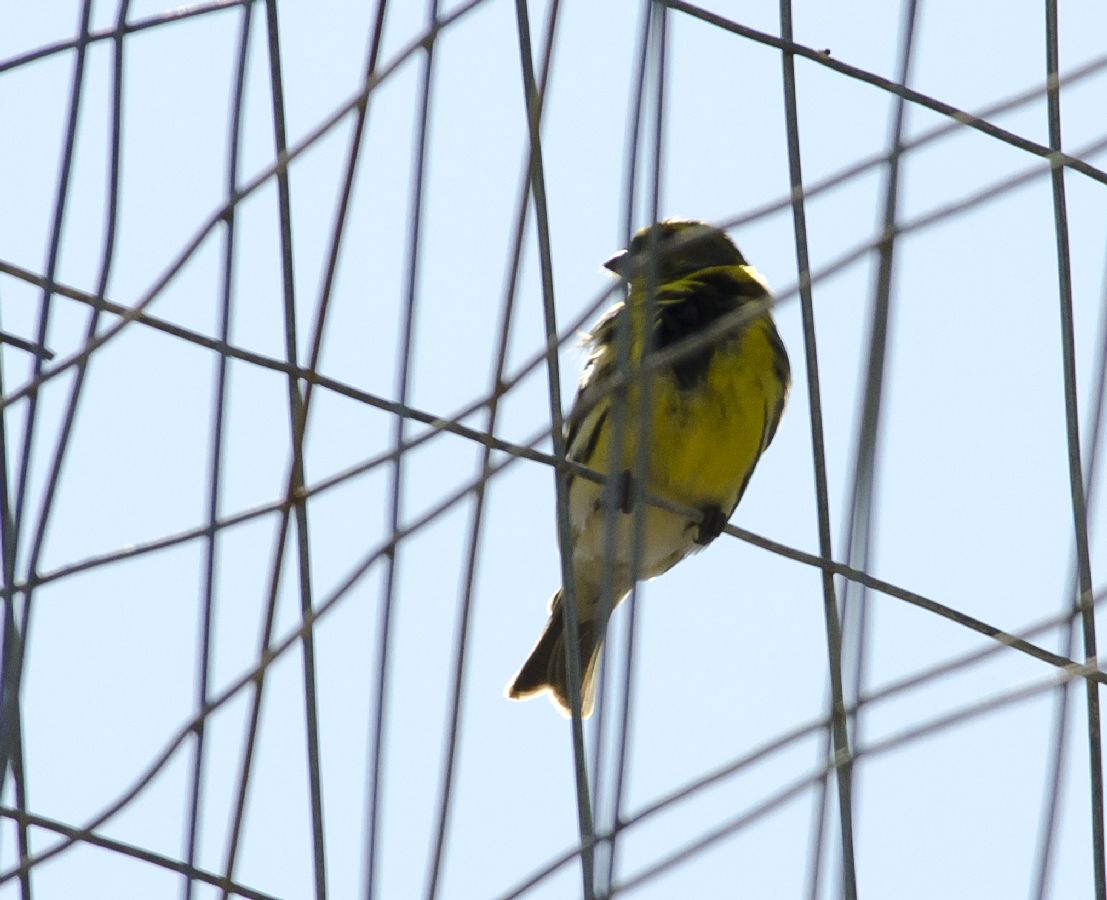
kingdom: Animalia
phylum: Chordata
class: Aves
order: Passeriformes
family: Fringillidae
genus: Serinus
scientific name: Serinus serinus
